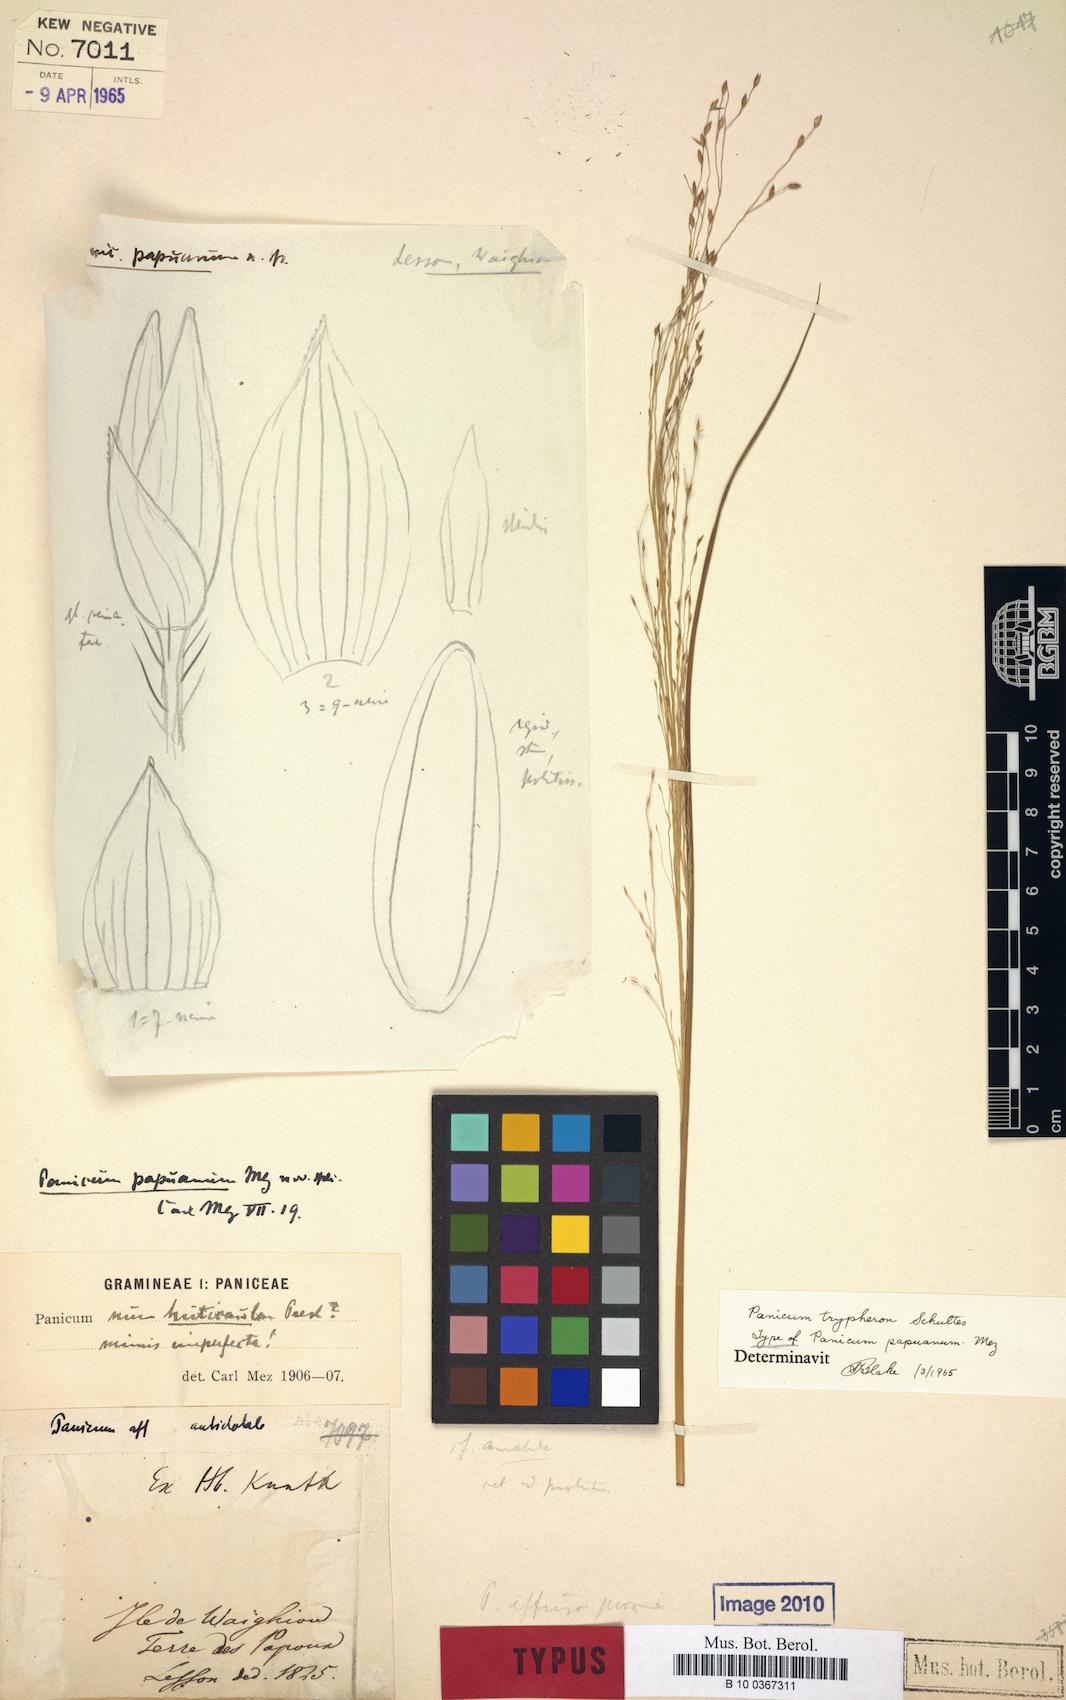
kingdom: Plantae
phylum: Tracheophyta
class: Liliopsida
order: Poales
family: Poaceae
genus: Panicum
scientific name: Panicum curviflorum
